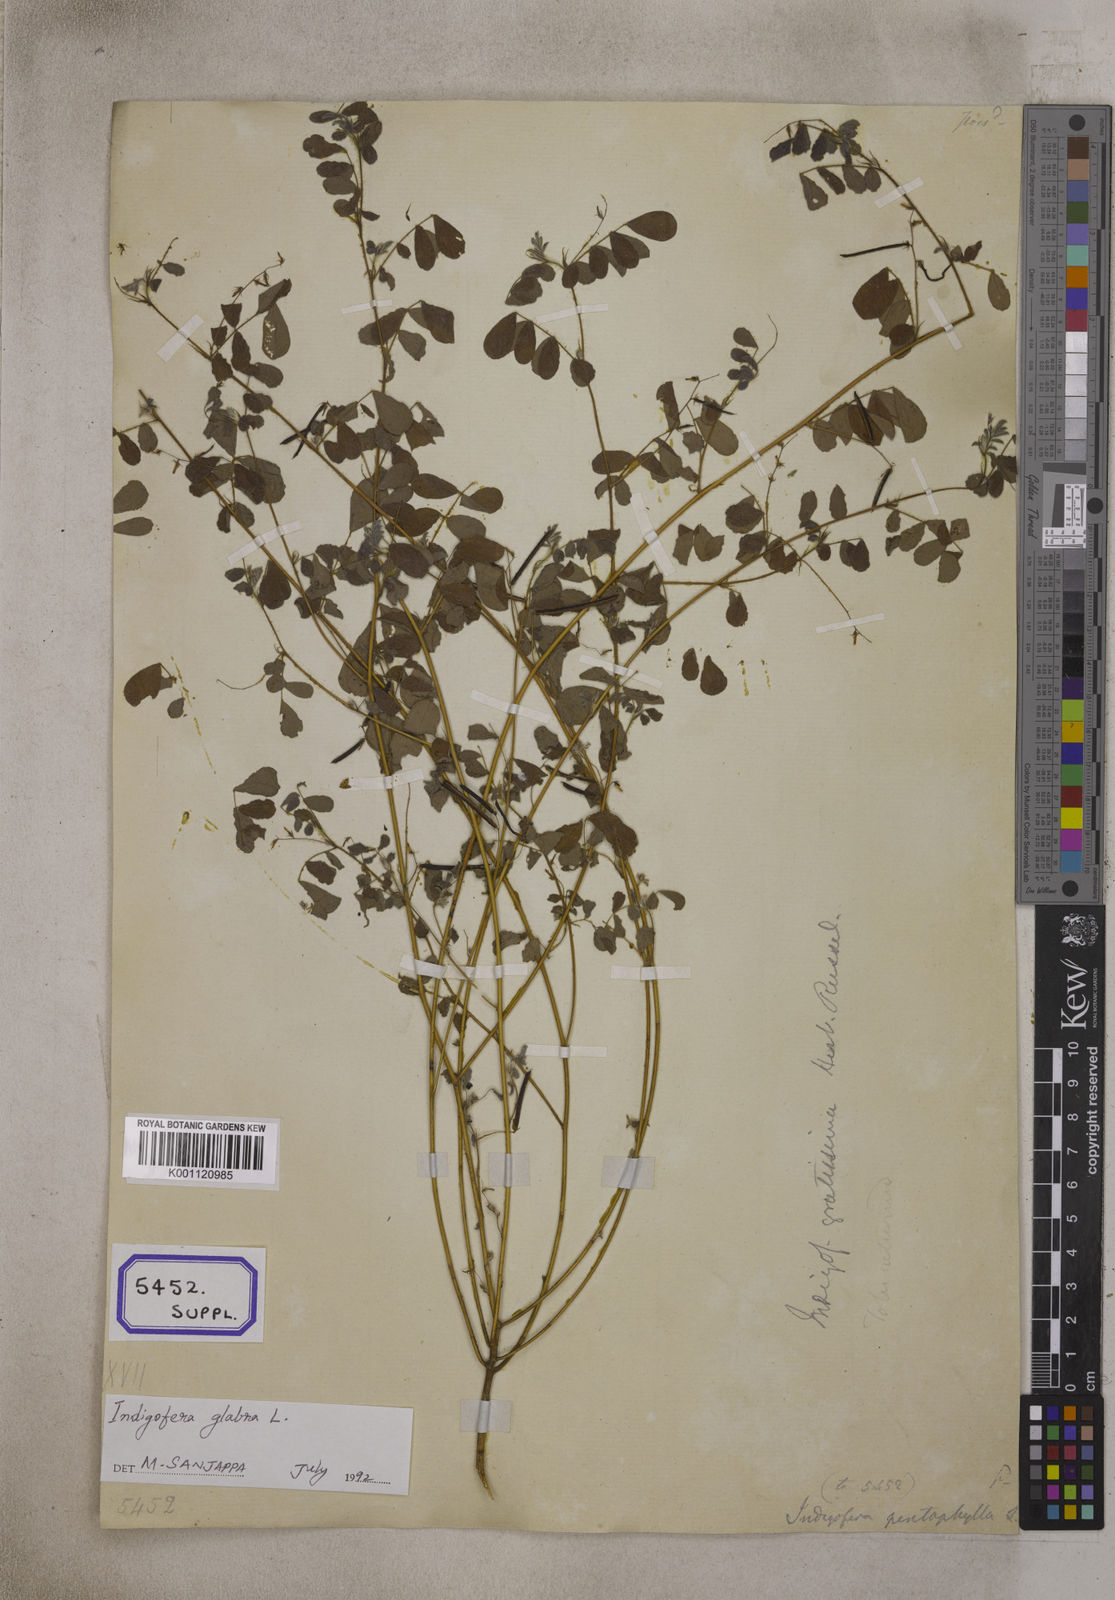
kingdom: Plantae
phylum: Tracheophyta
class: Magnoliopsida
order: Fabales
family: Fabaceae
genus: Indigofera
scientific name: Indigofera glabra
